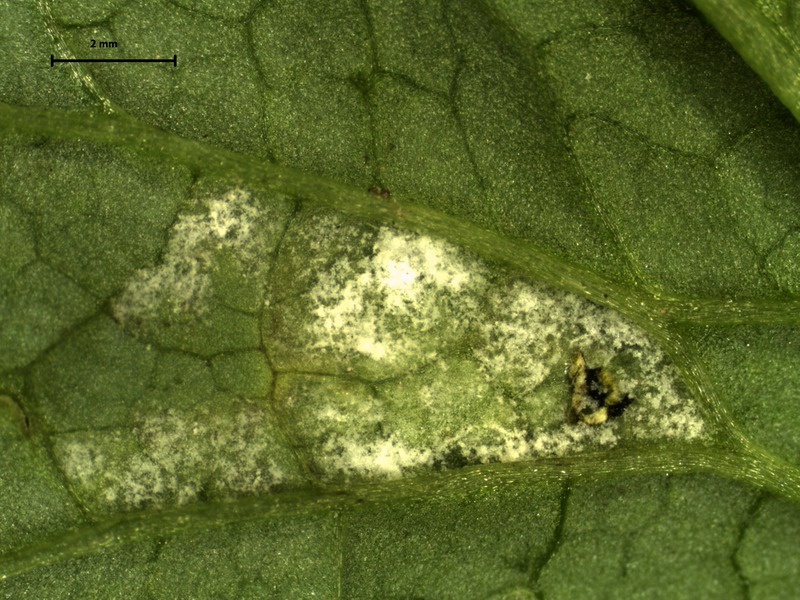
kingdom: Chromista
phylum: Oomycota
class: Peronosporea
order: Peronosporales
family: Peronosporaceae
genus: Hyaloperonospora
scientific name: Hyaloperonospora niessliana
